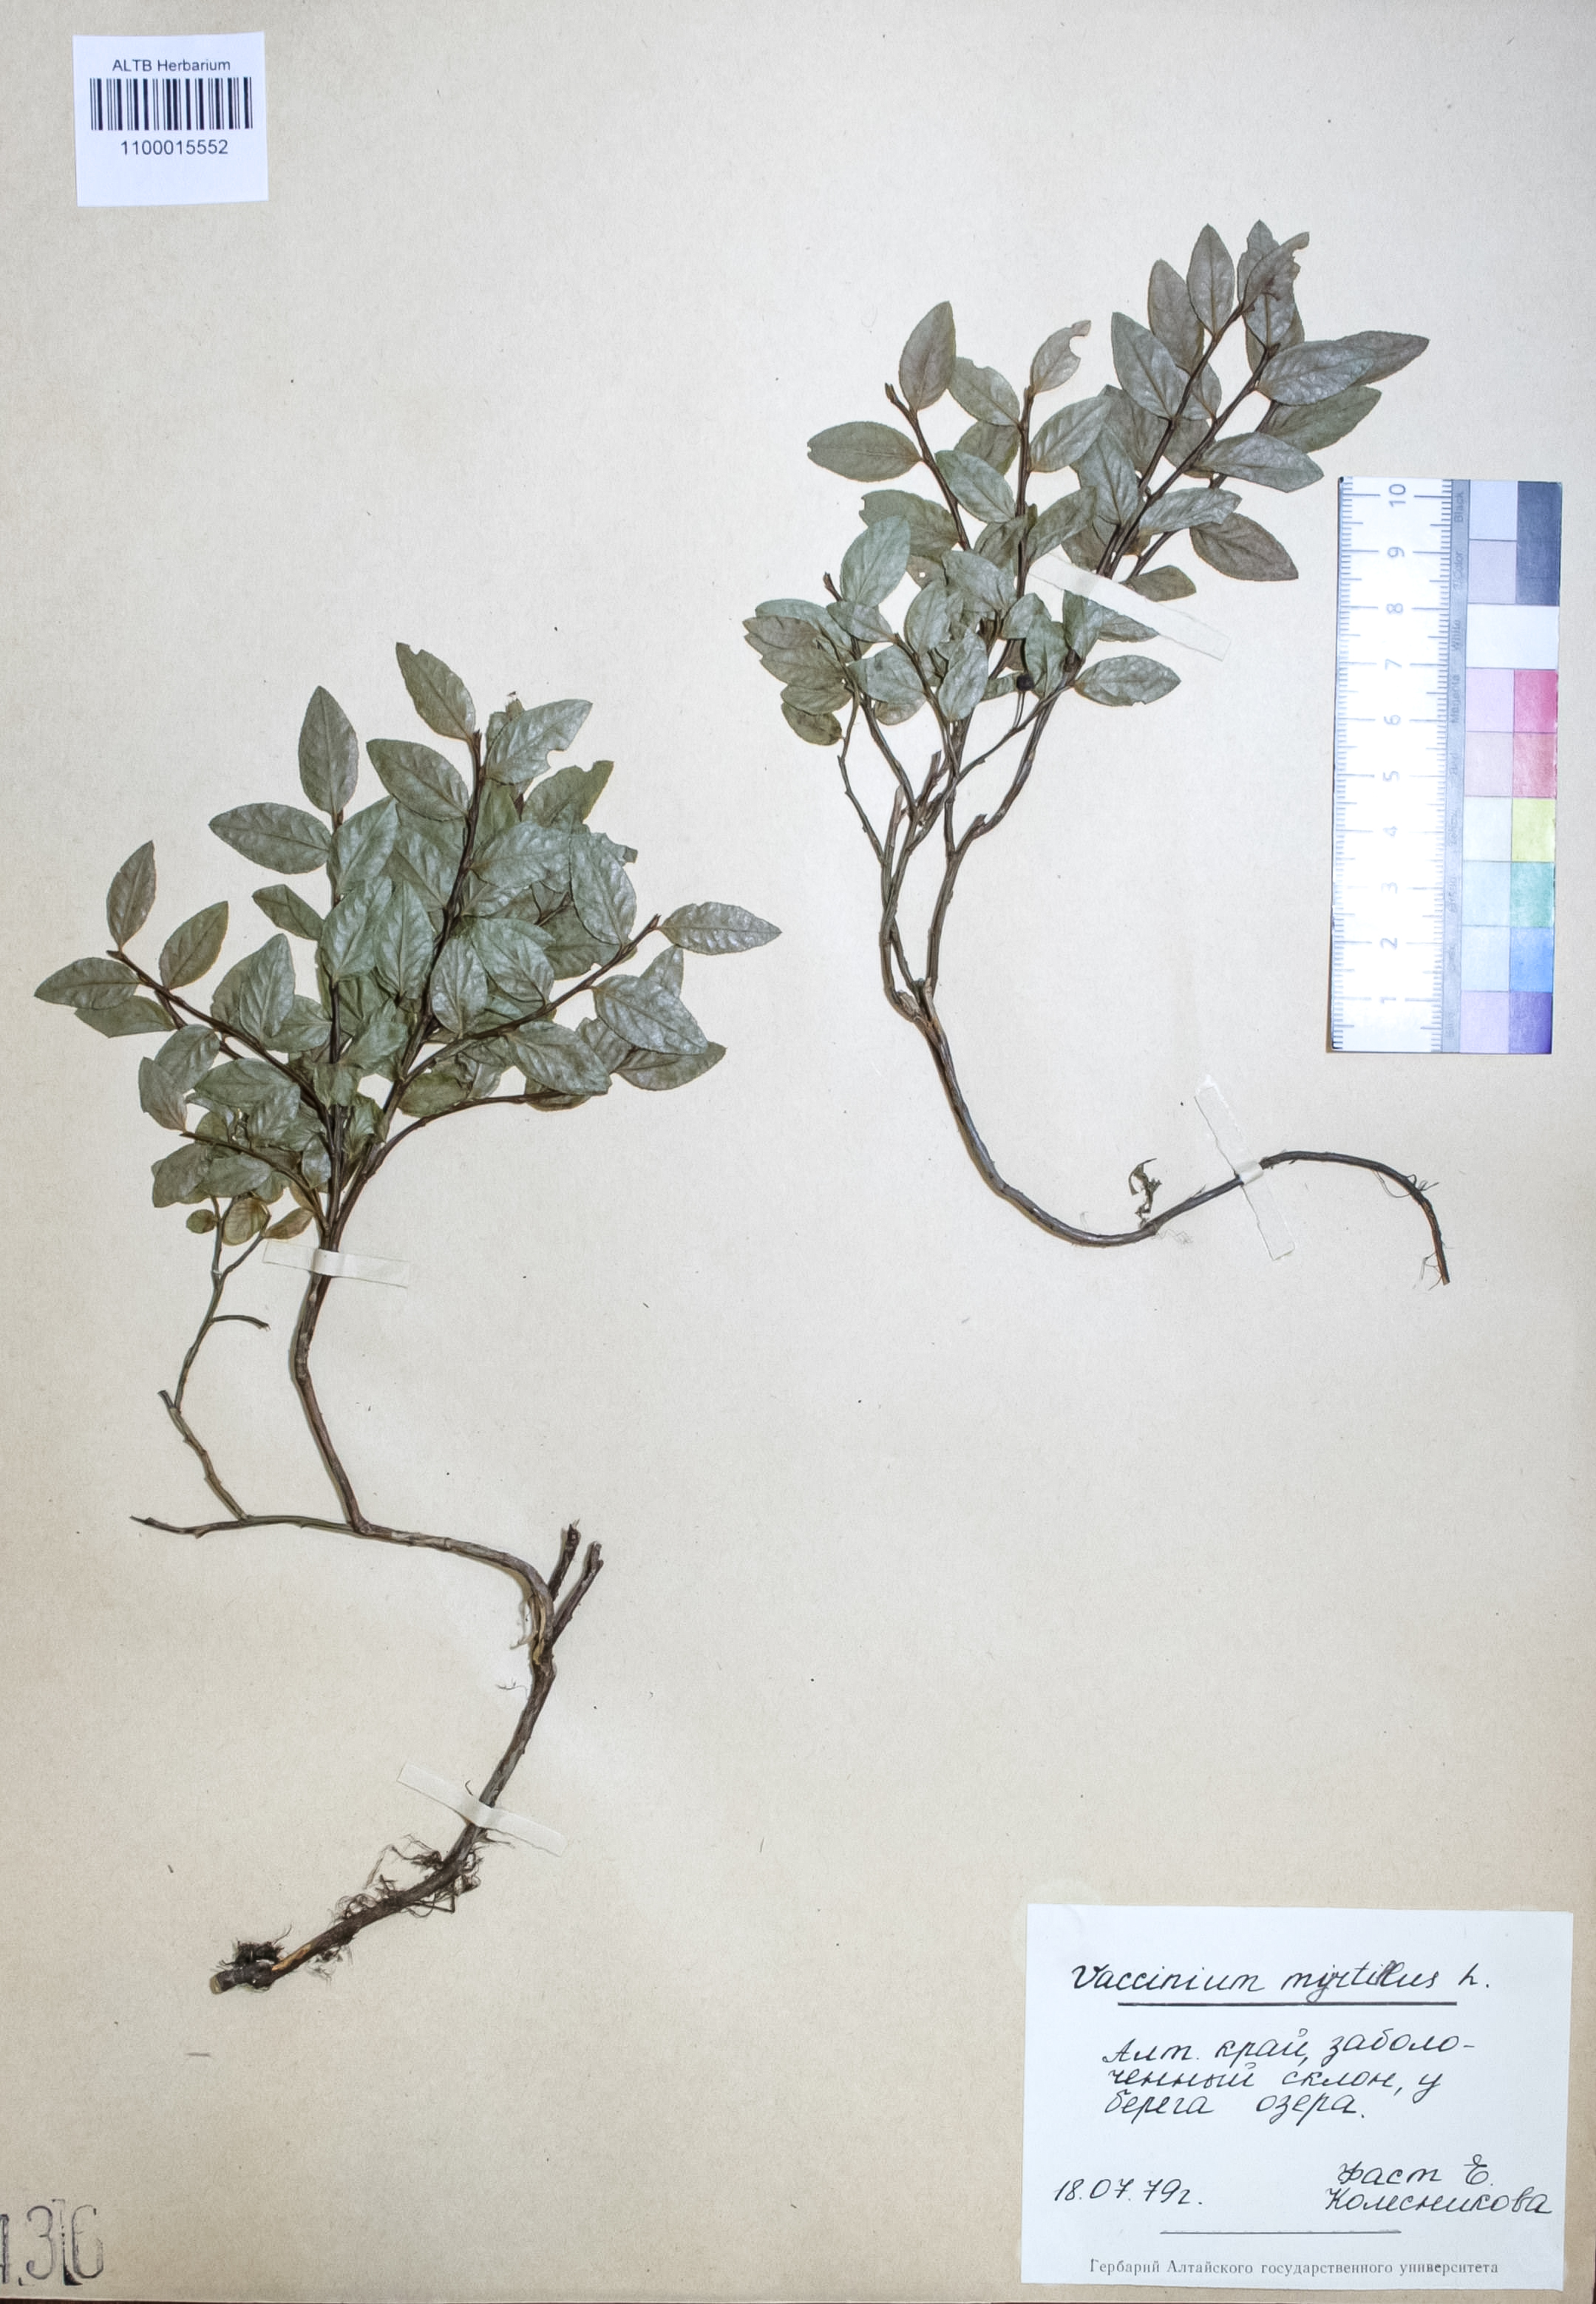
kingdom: Plantae
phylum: Tracheophyta
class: Magnoliopsida
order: Ericales
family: Ericaceae
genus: Vaccinium
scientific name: Vaccinium myrtillus
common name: Bilberry
